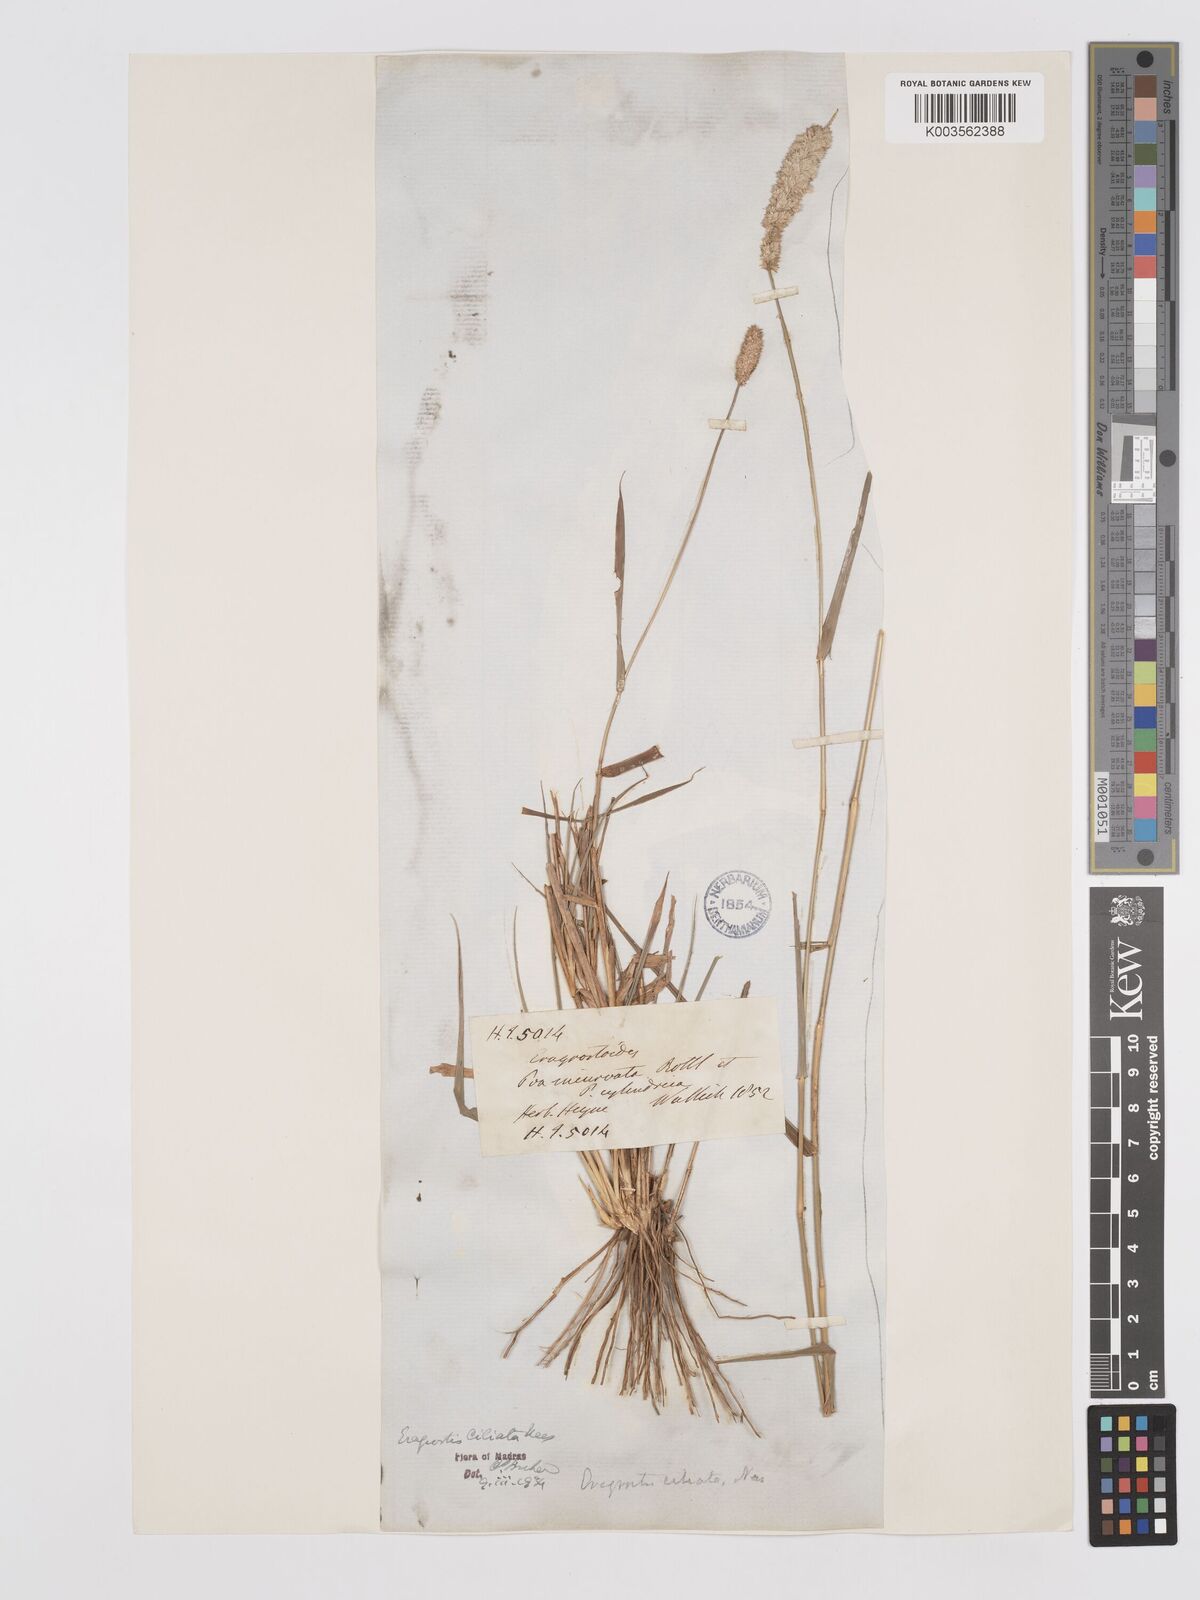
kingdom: Plantae
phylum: Tracheophyta
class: Liliopsida
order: Poales
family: Poaceae
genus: Eragrostis
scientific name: Eragrostis ciliata
